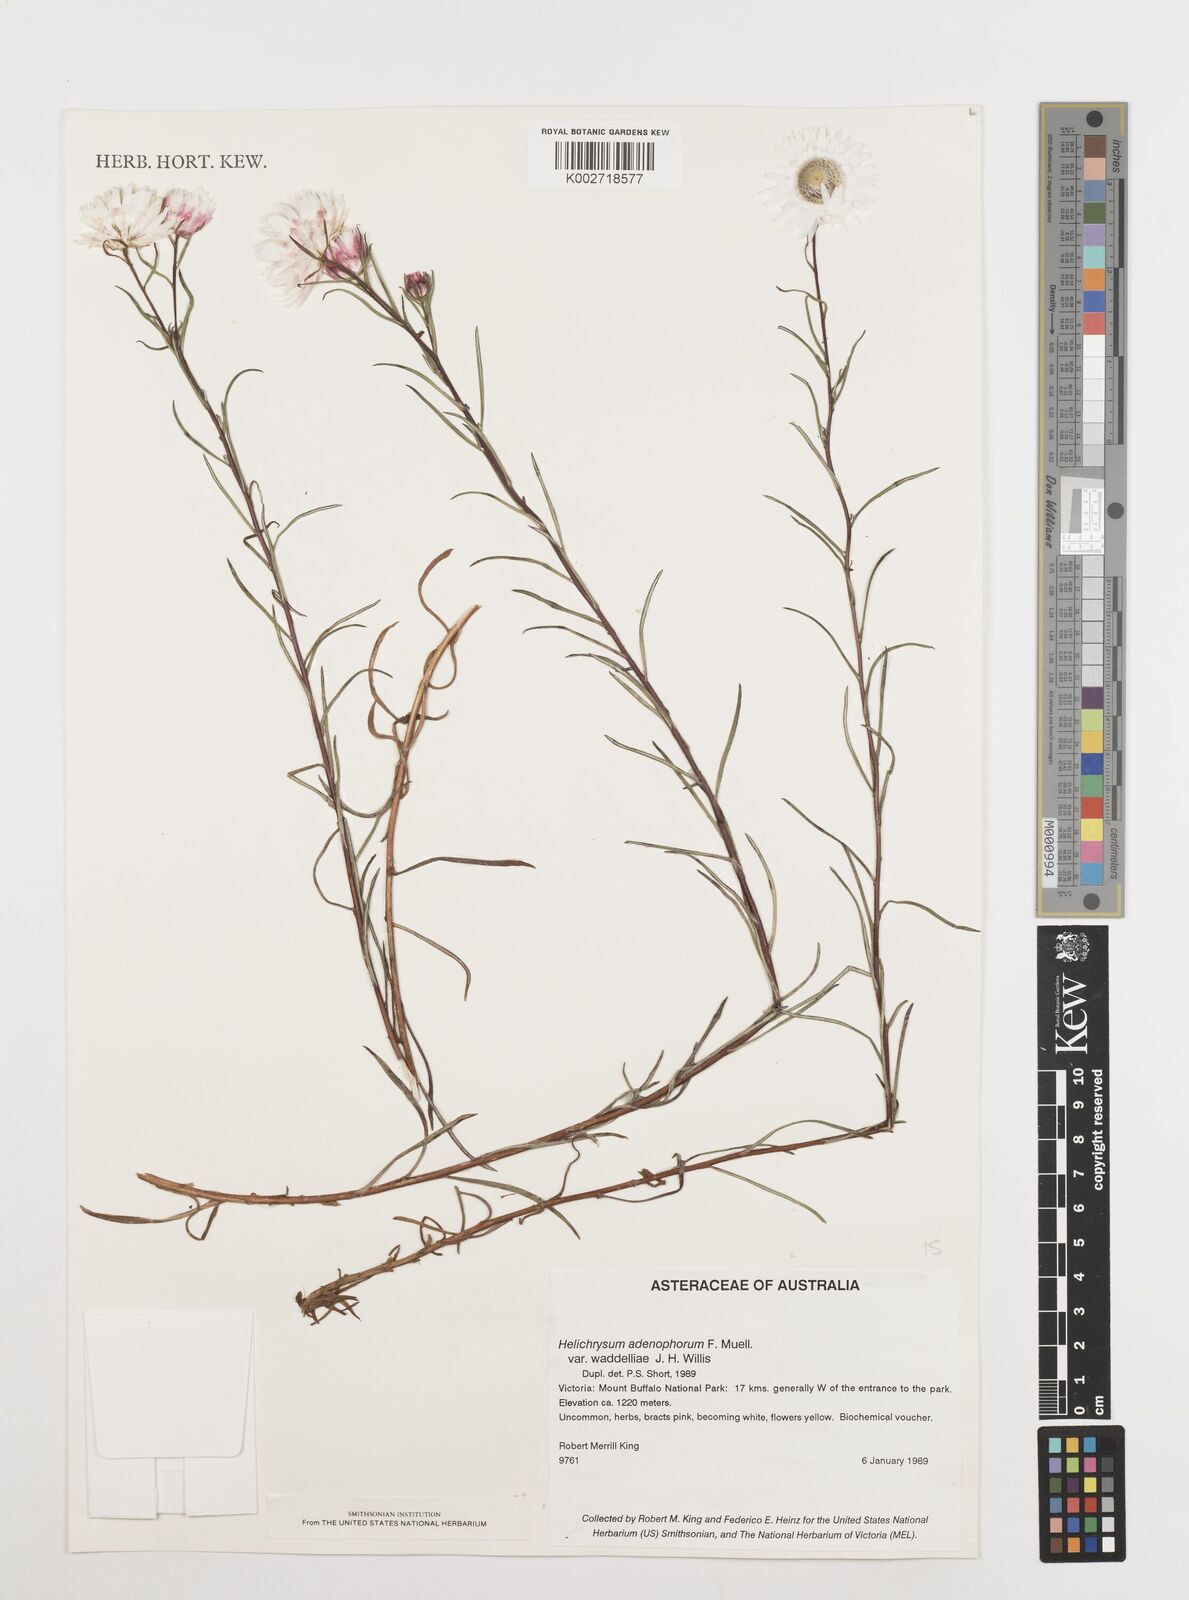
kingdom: Plantae
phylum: Tracheophyta
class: Magnoliopsida
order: Asterales
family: Asteraceae
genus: Coronidium
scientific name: Coronidium waddelliae
